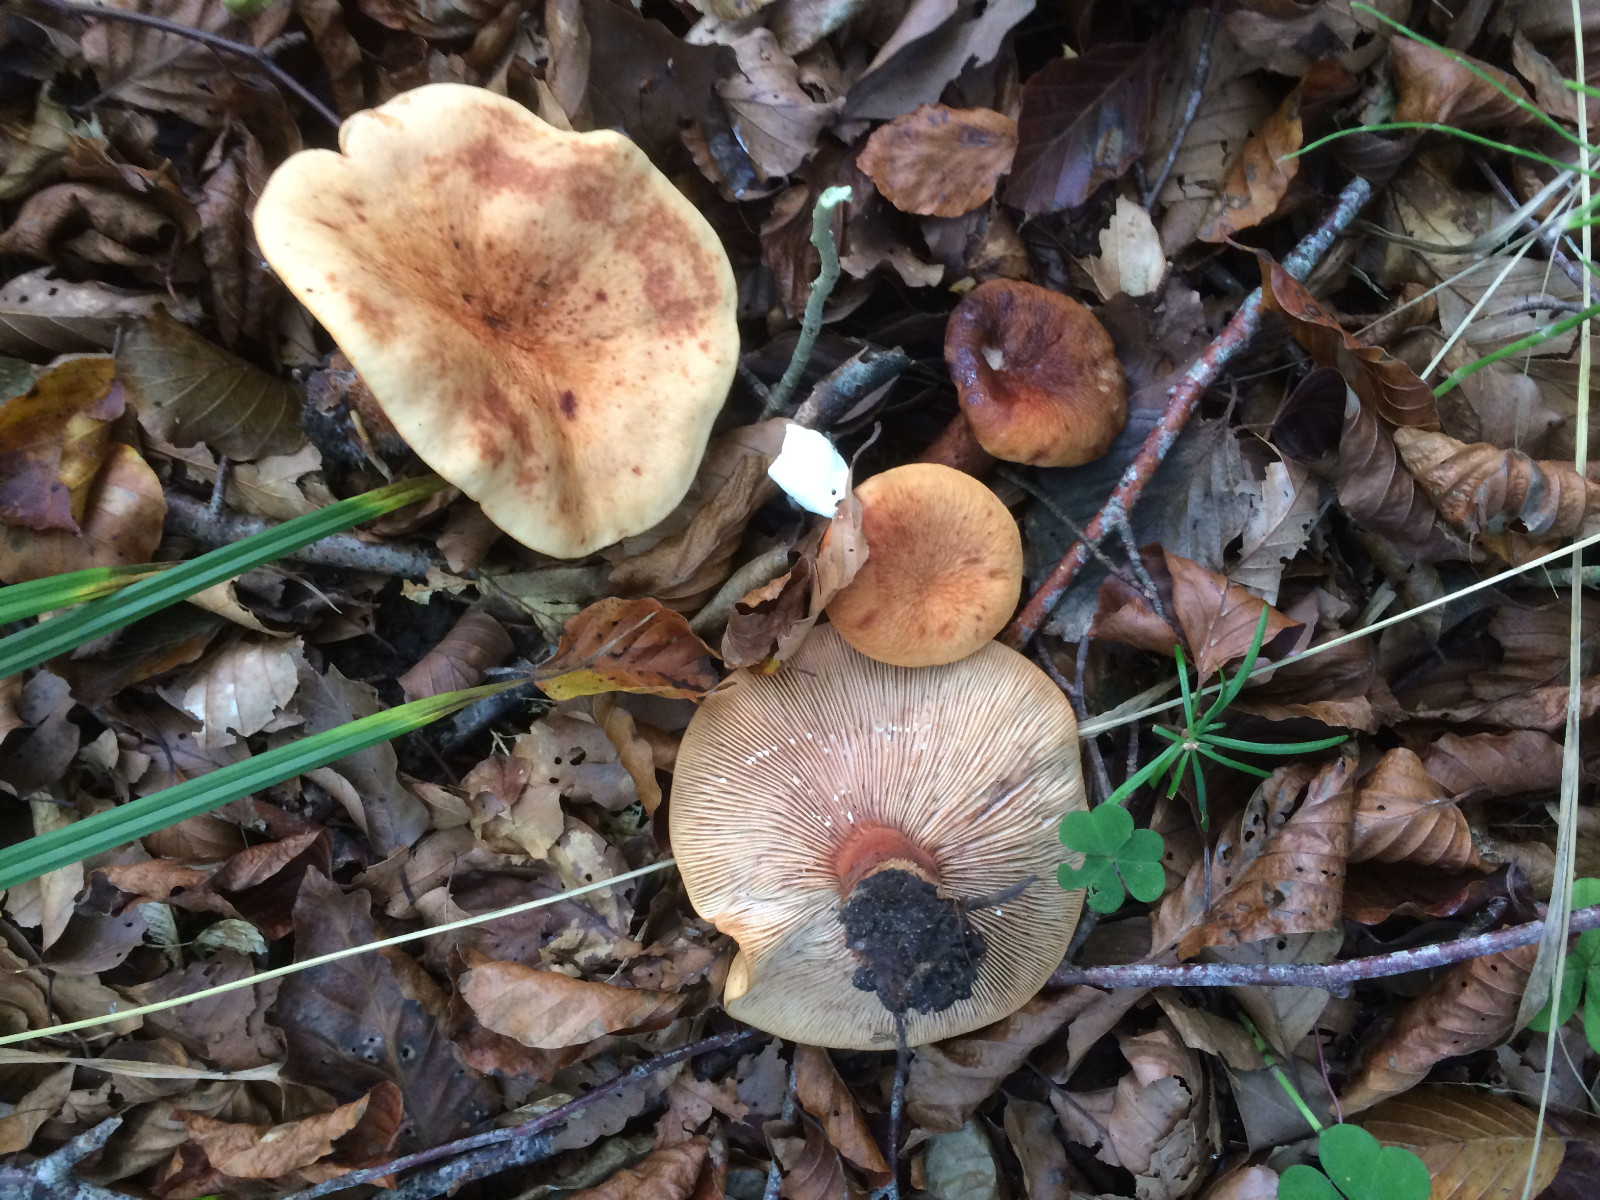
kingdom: Fungi
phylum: Basidiomycota
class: Agaricomycetes
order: Russulales
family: Russulaceae
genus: Lactarius
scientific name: Lactarius rubrocinctus
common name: halsbånd-mælkehat
